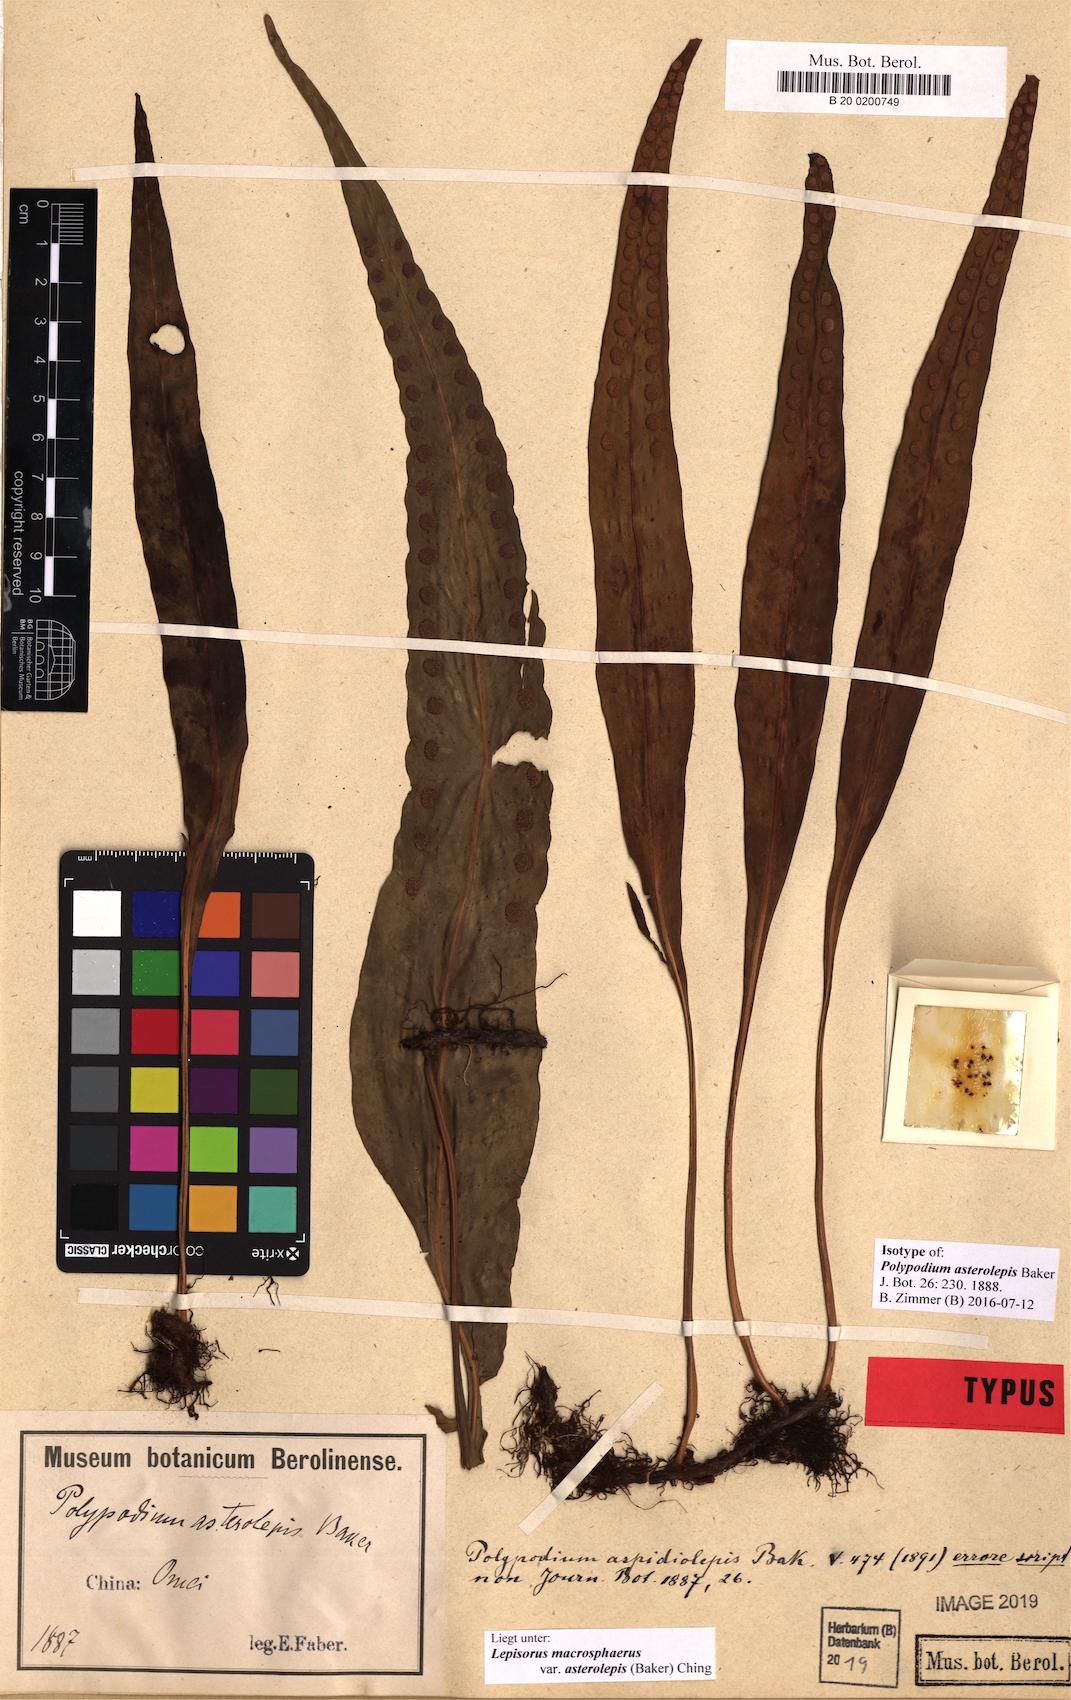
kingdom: Plantae
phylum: Tracheophyta
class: Polypodiopsida
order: Polypodiales
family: Polypodiaceae
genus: Lepisorus
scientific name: Lepisorus asterolepis
